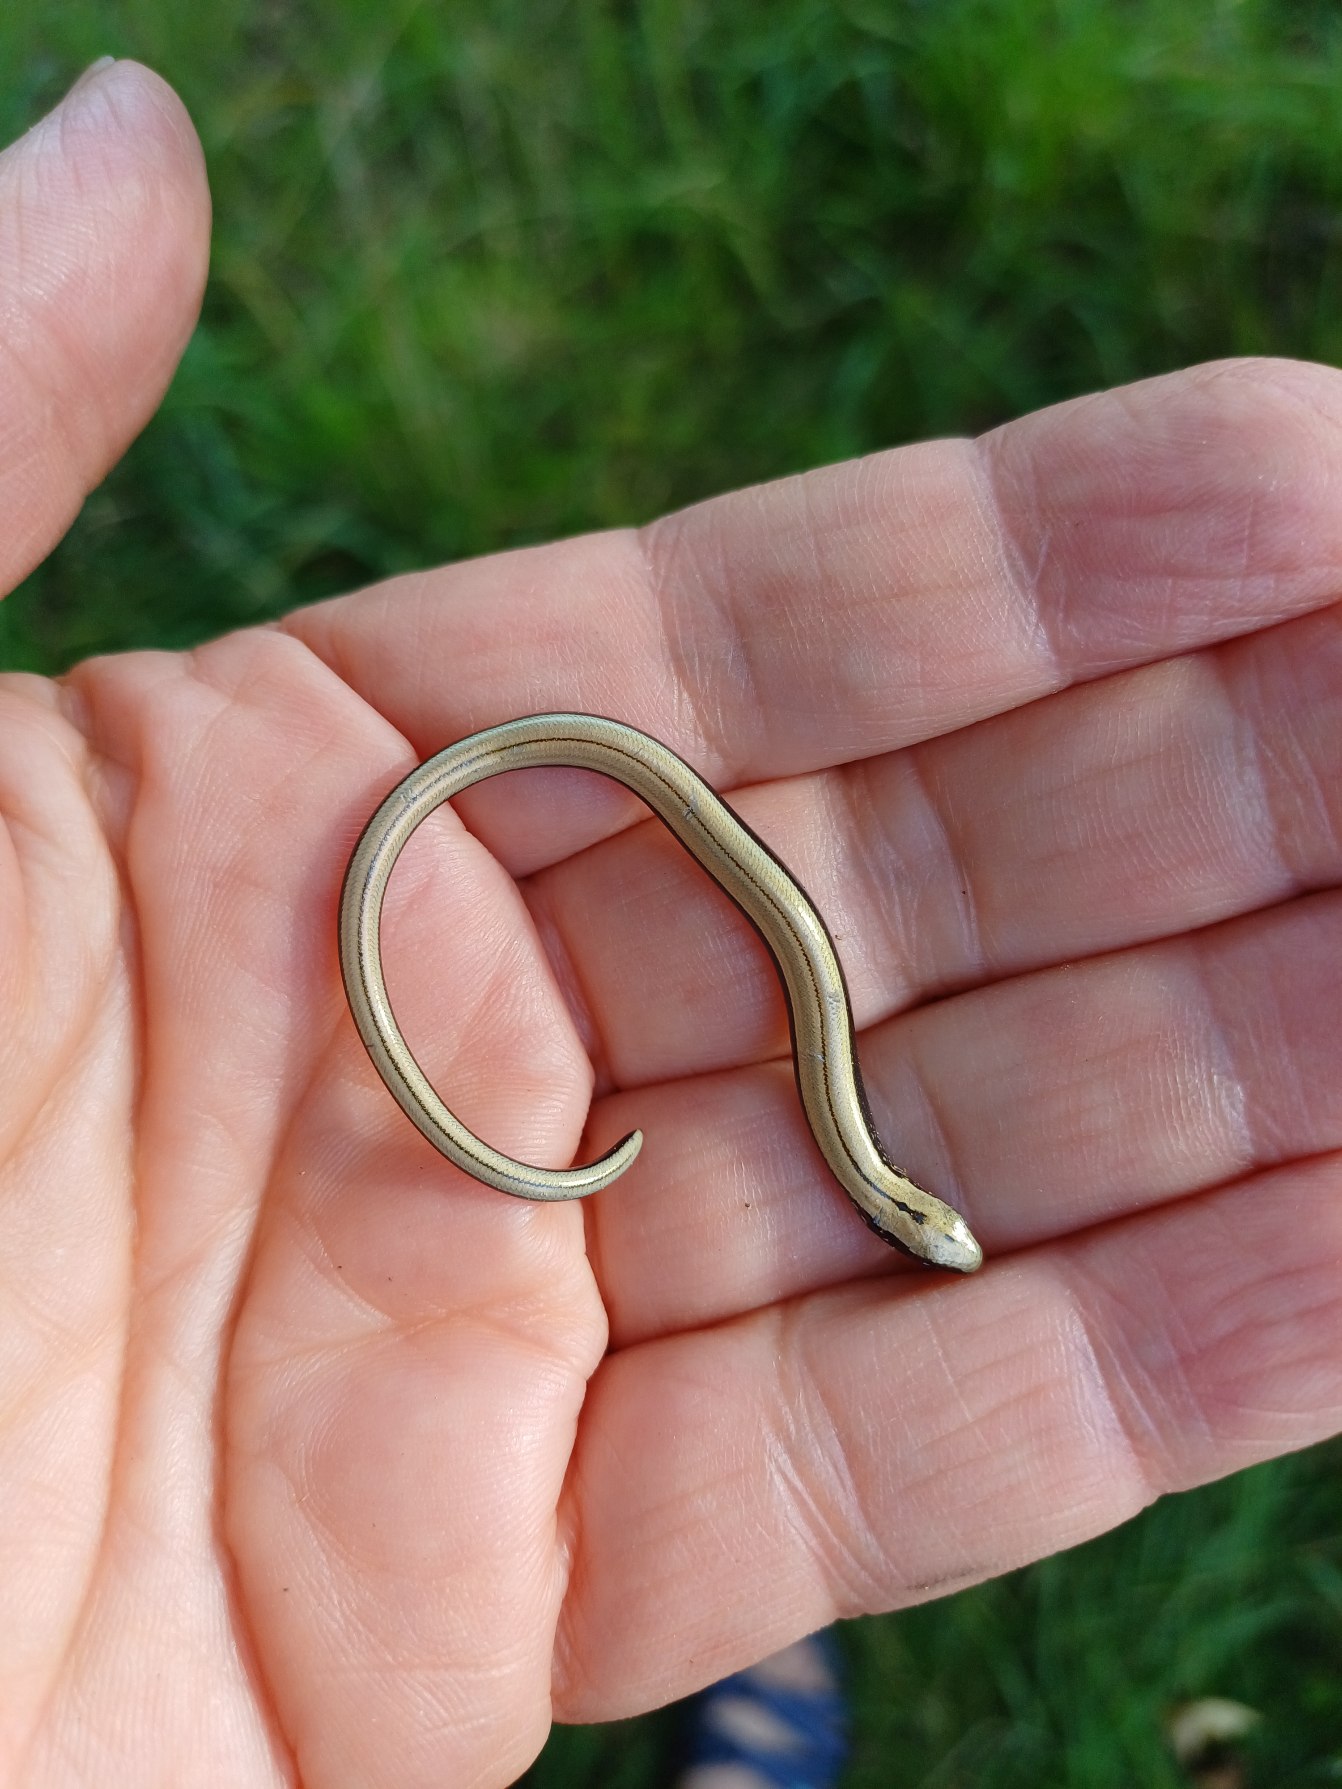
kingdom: Animalia
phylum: Chordata
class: Squamata
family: Anguidae
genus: Anguis
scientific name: Anguis fragilis
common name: Stålorm
